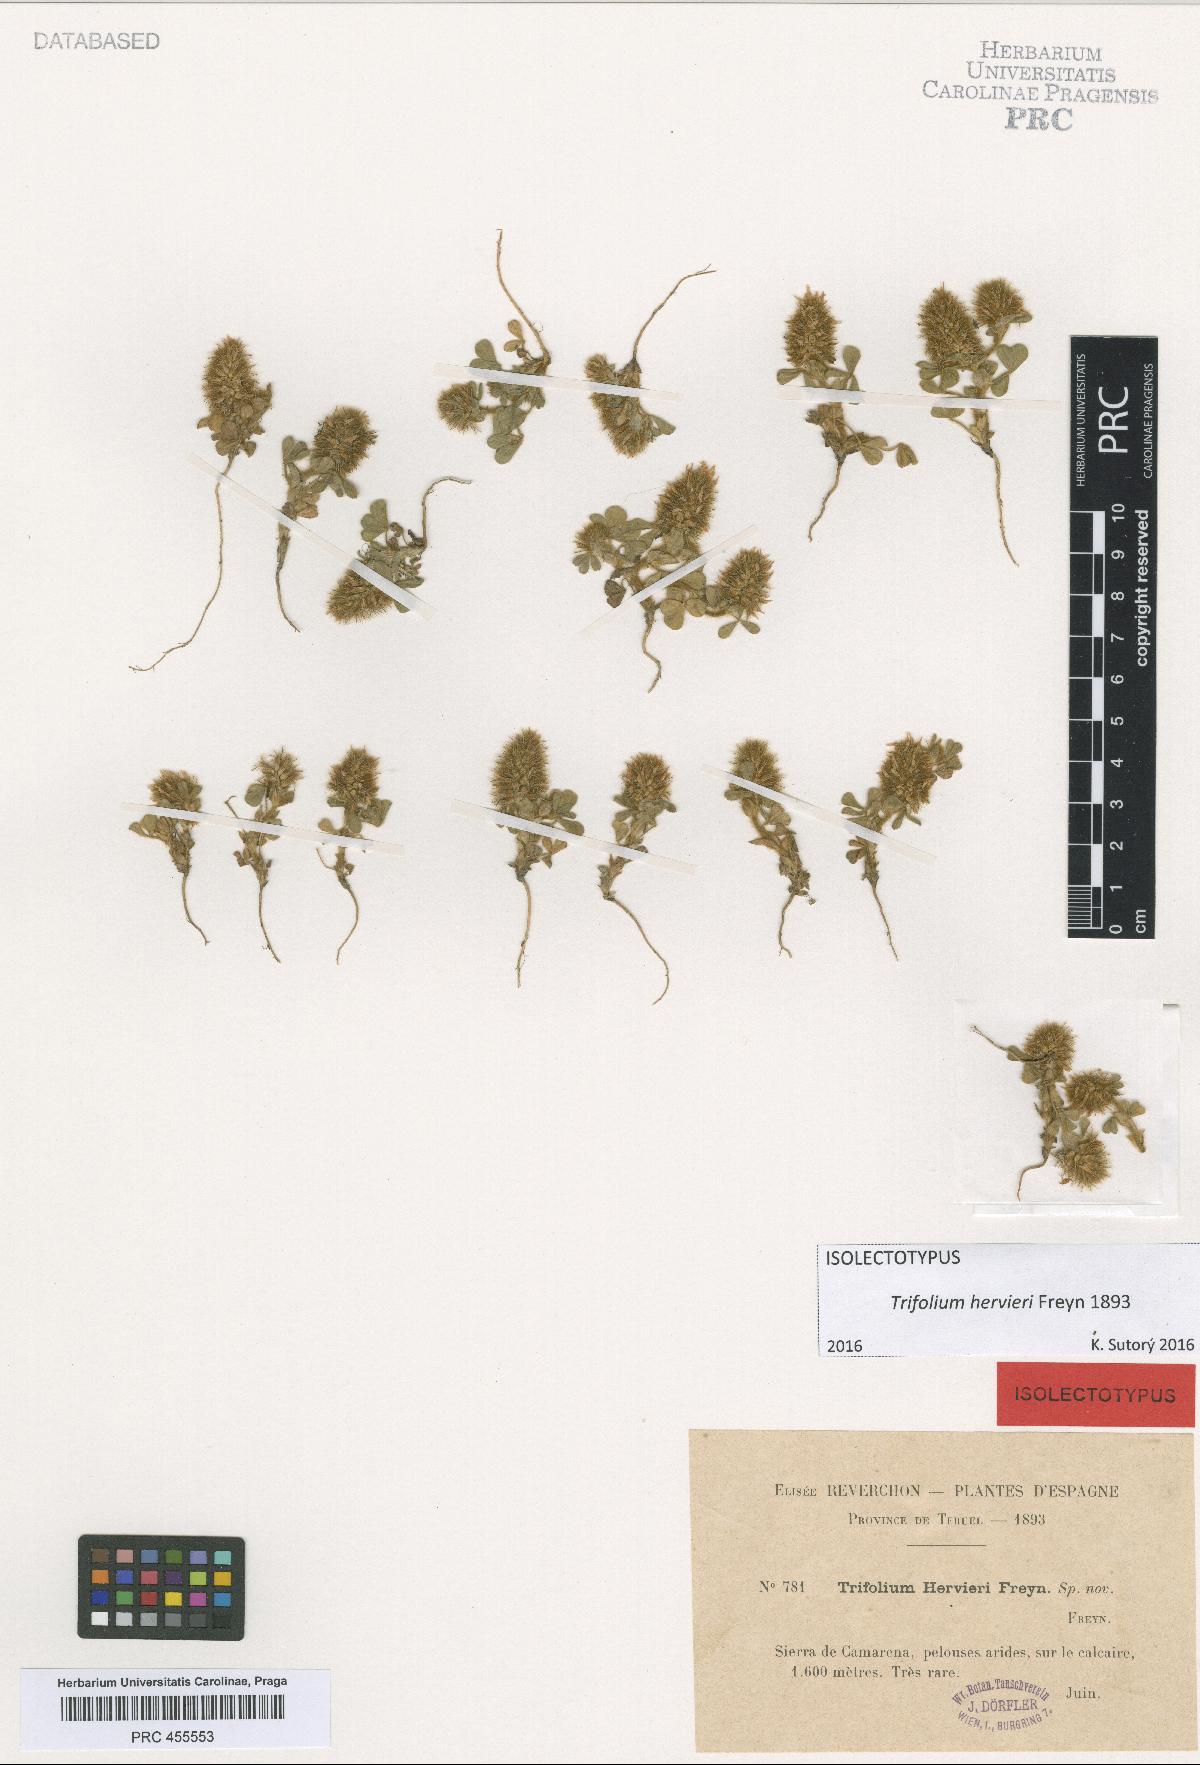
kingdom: Plantae
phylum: Tracheophyta
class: Magnoliopsida
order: Fabales
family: Fabaceae
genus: Trifolium
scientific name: Trifolium sylvaticum
